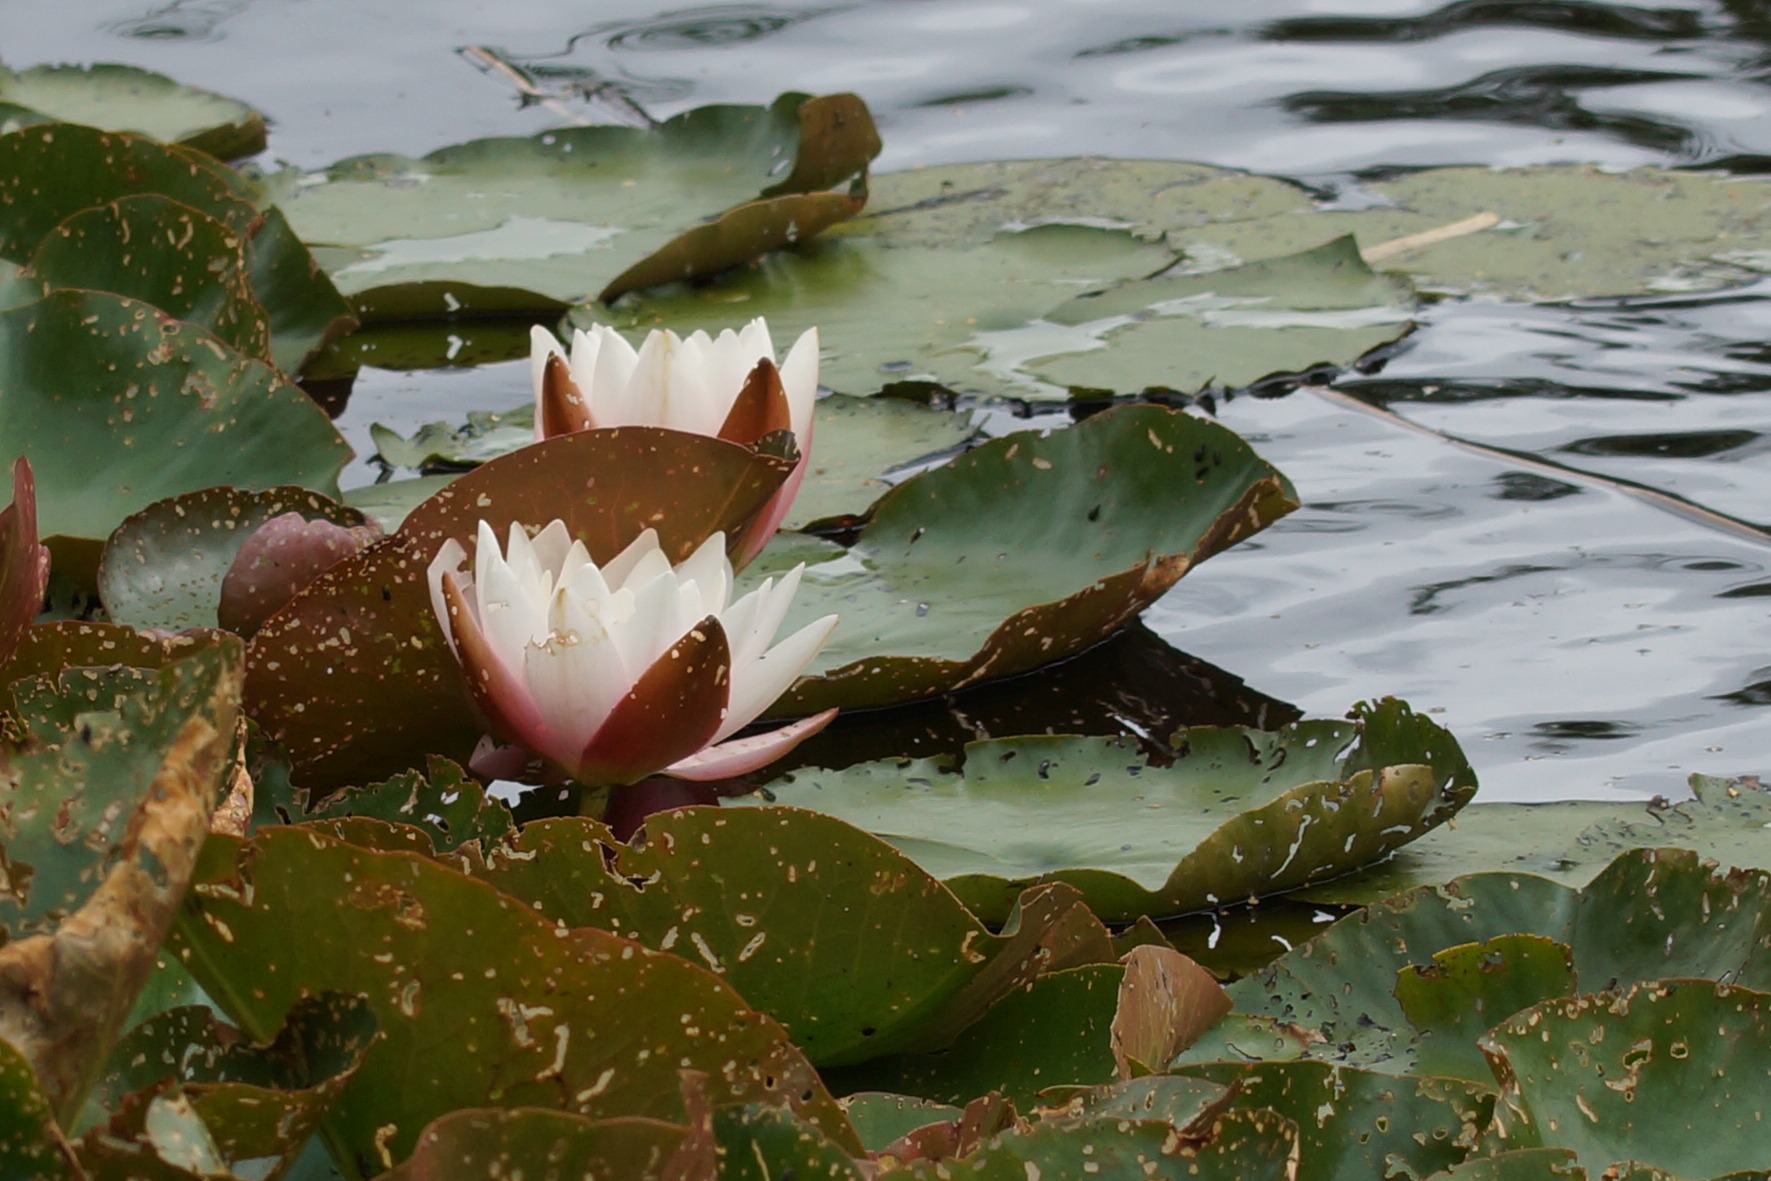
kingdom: Plantae
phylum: Tracheophyta
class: Magnoliopsida
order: Nymphaeales
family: Nymphaeaceae
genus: Nymphaea
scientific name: Nymphaea alba
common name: Hvid åkande
